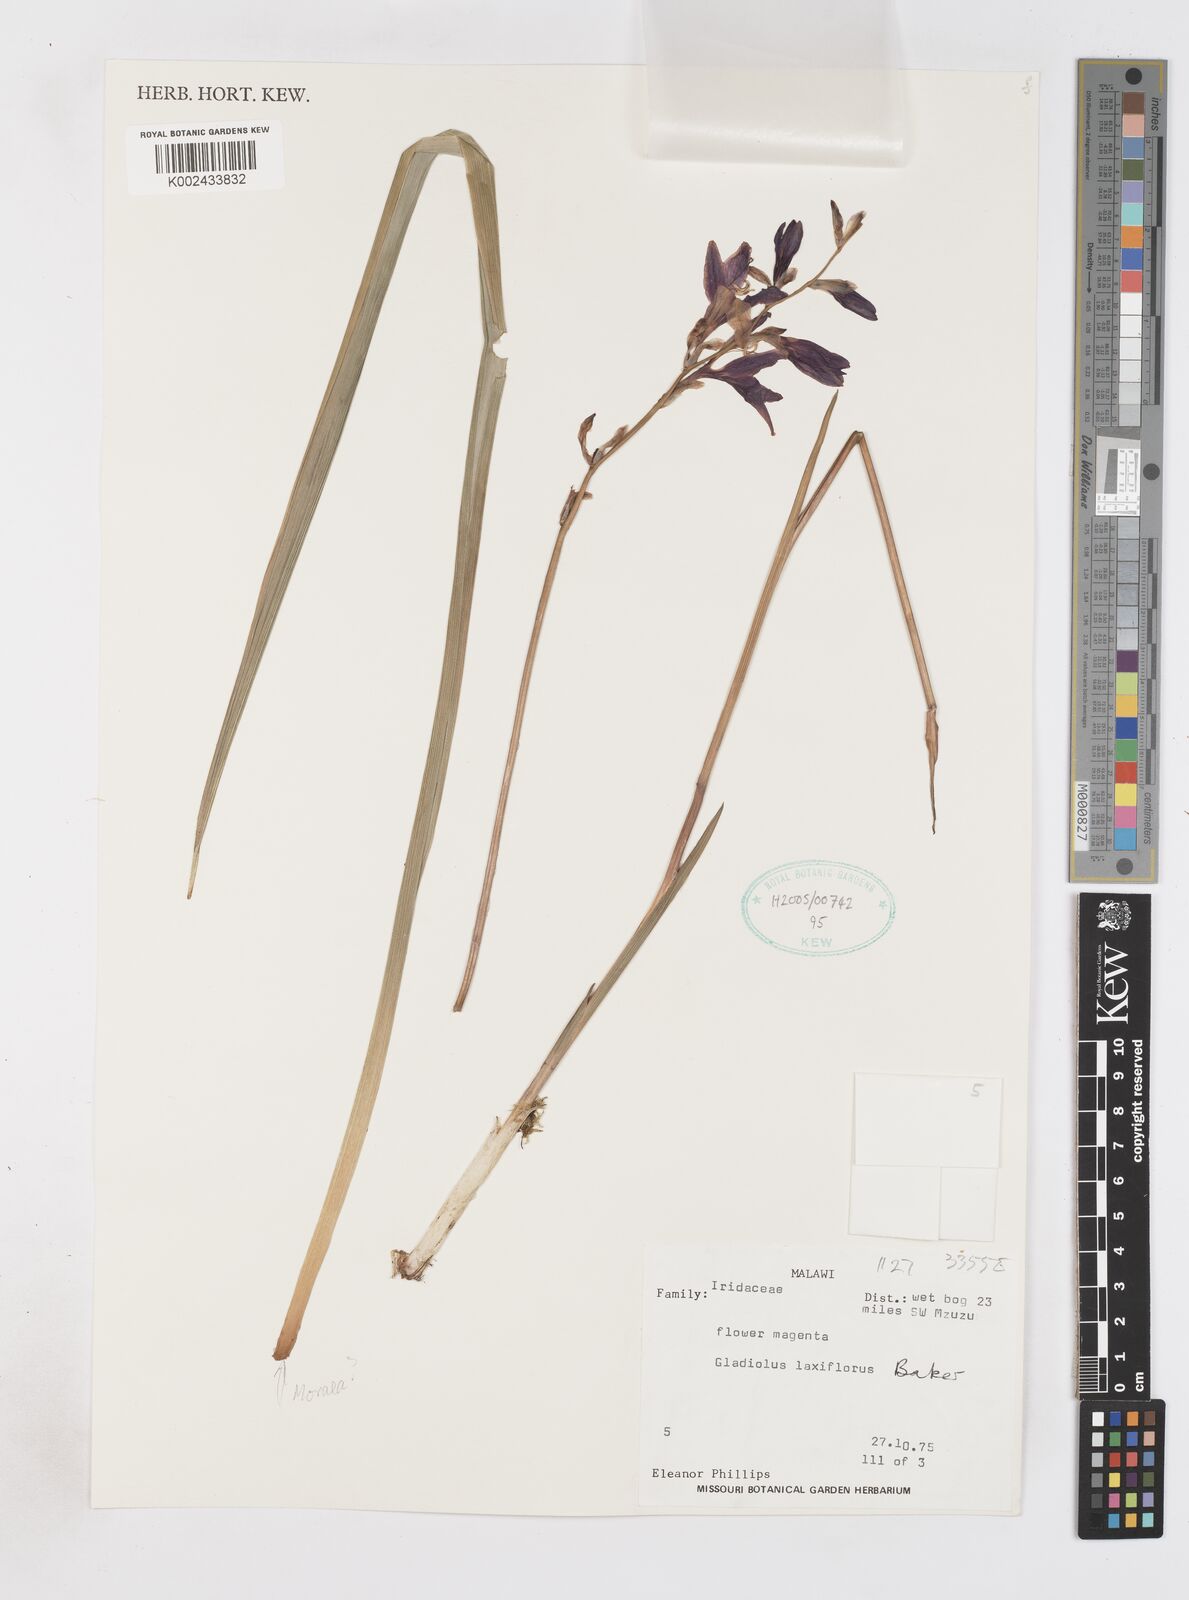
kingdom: Plantae
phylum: Tracheophyta
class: Liliopsida
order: Asparagales
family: Iridaceae
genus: Gladiolus
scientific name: Gladiolus laxiflorus
